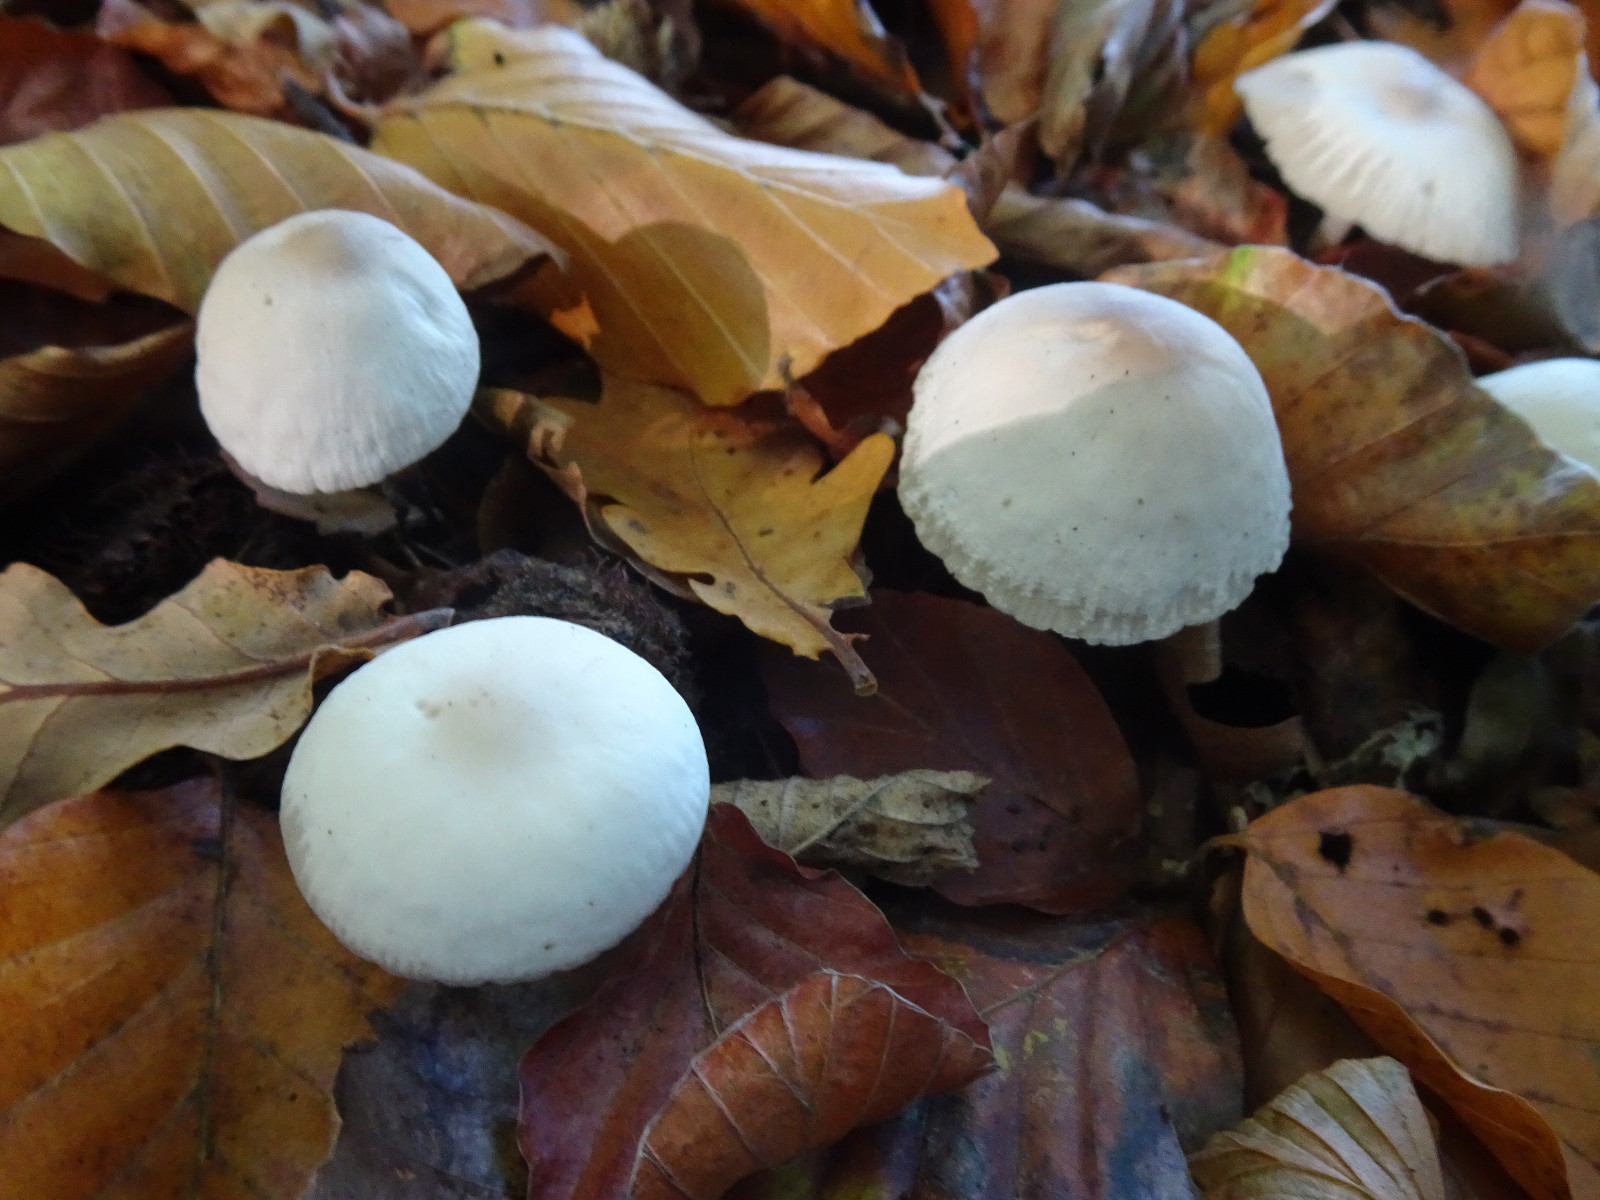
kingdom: Fungi
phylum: Basidiomycota
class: Agaricomycetes
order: Agaricales
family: Marasmiaceae
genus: Marasmius
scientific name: Marasmius wynneae
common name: hvælvet bruskhat
